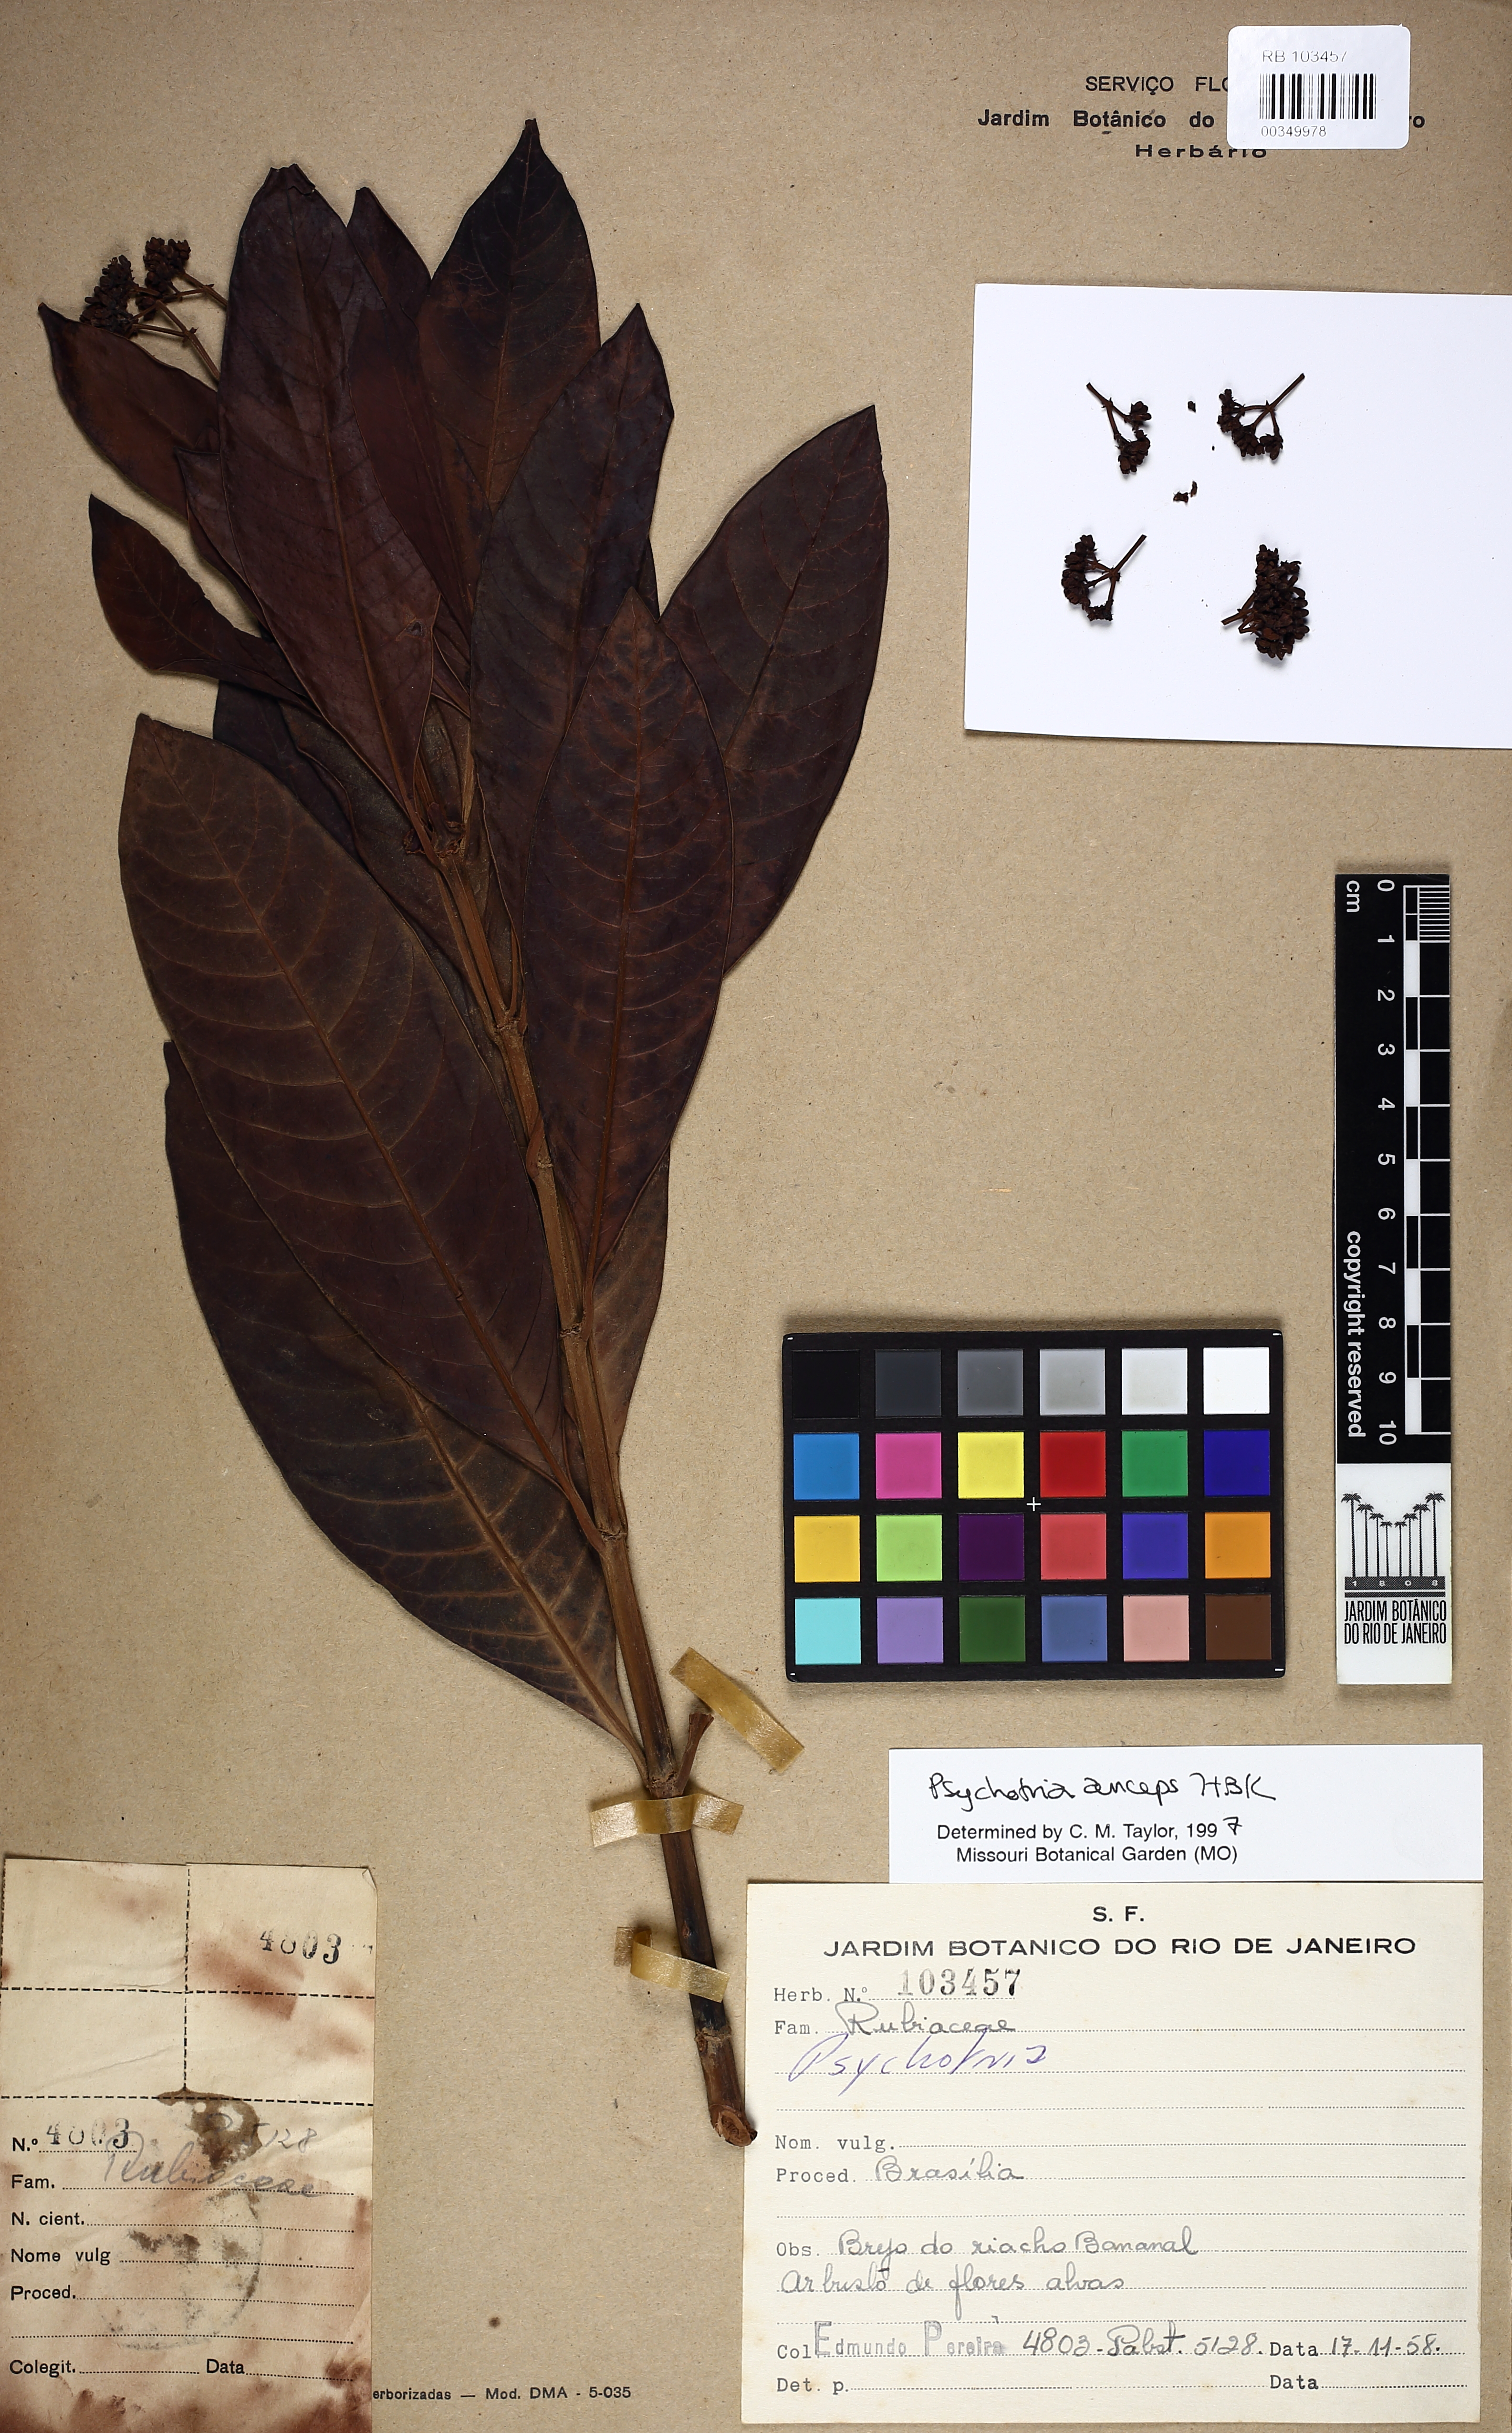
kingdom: Plantae
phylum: Tracheophyta
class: Magnoliopsida
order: Gentianales
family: Rubiaceae
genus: Psychotria
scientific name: Psychotria anceps
